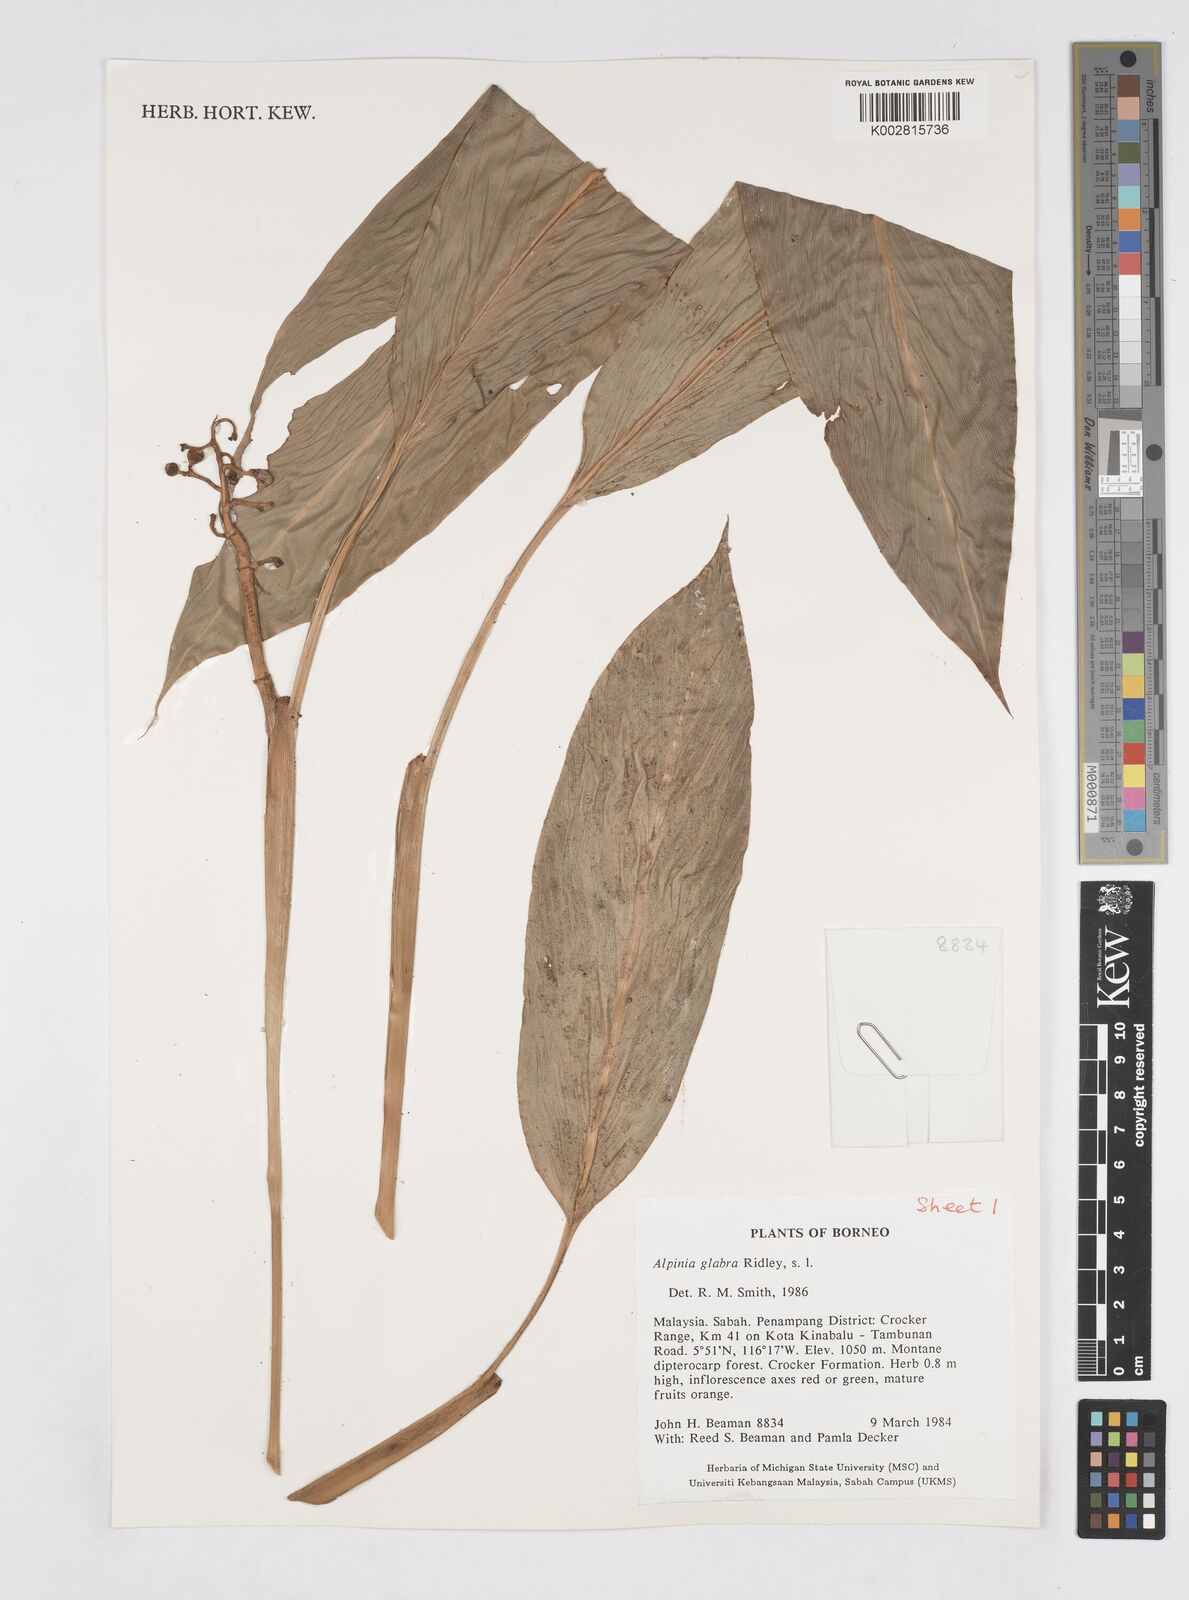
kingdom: Plantae
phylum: Tracheophyta
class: Liliopsida
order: Zingiberales
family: Zingiberaceae
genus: Alpinia
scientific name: Alpinia glabra
